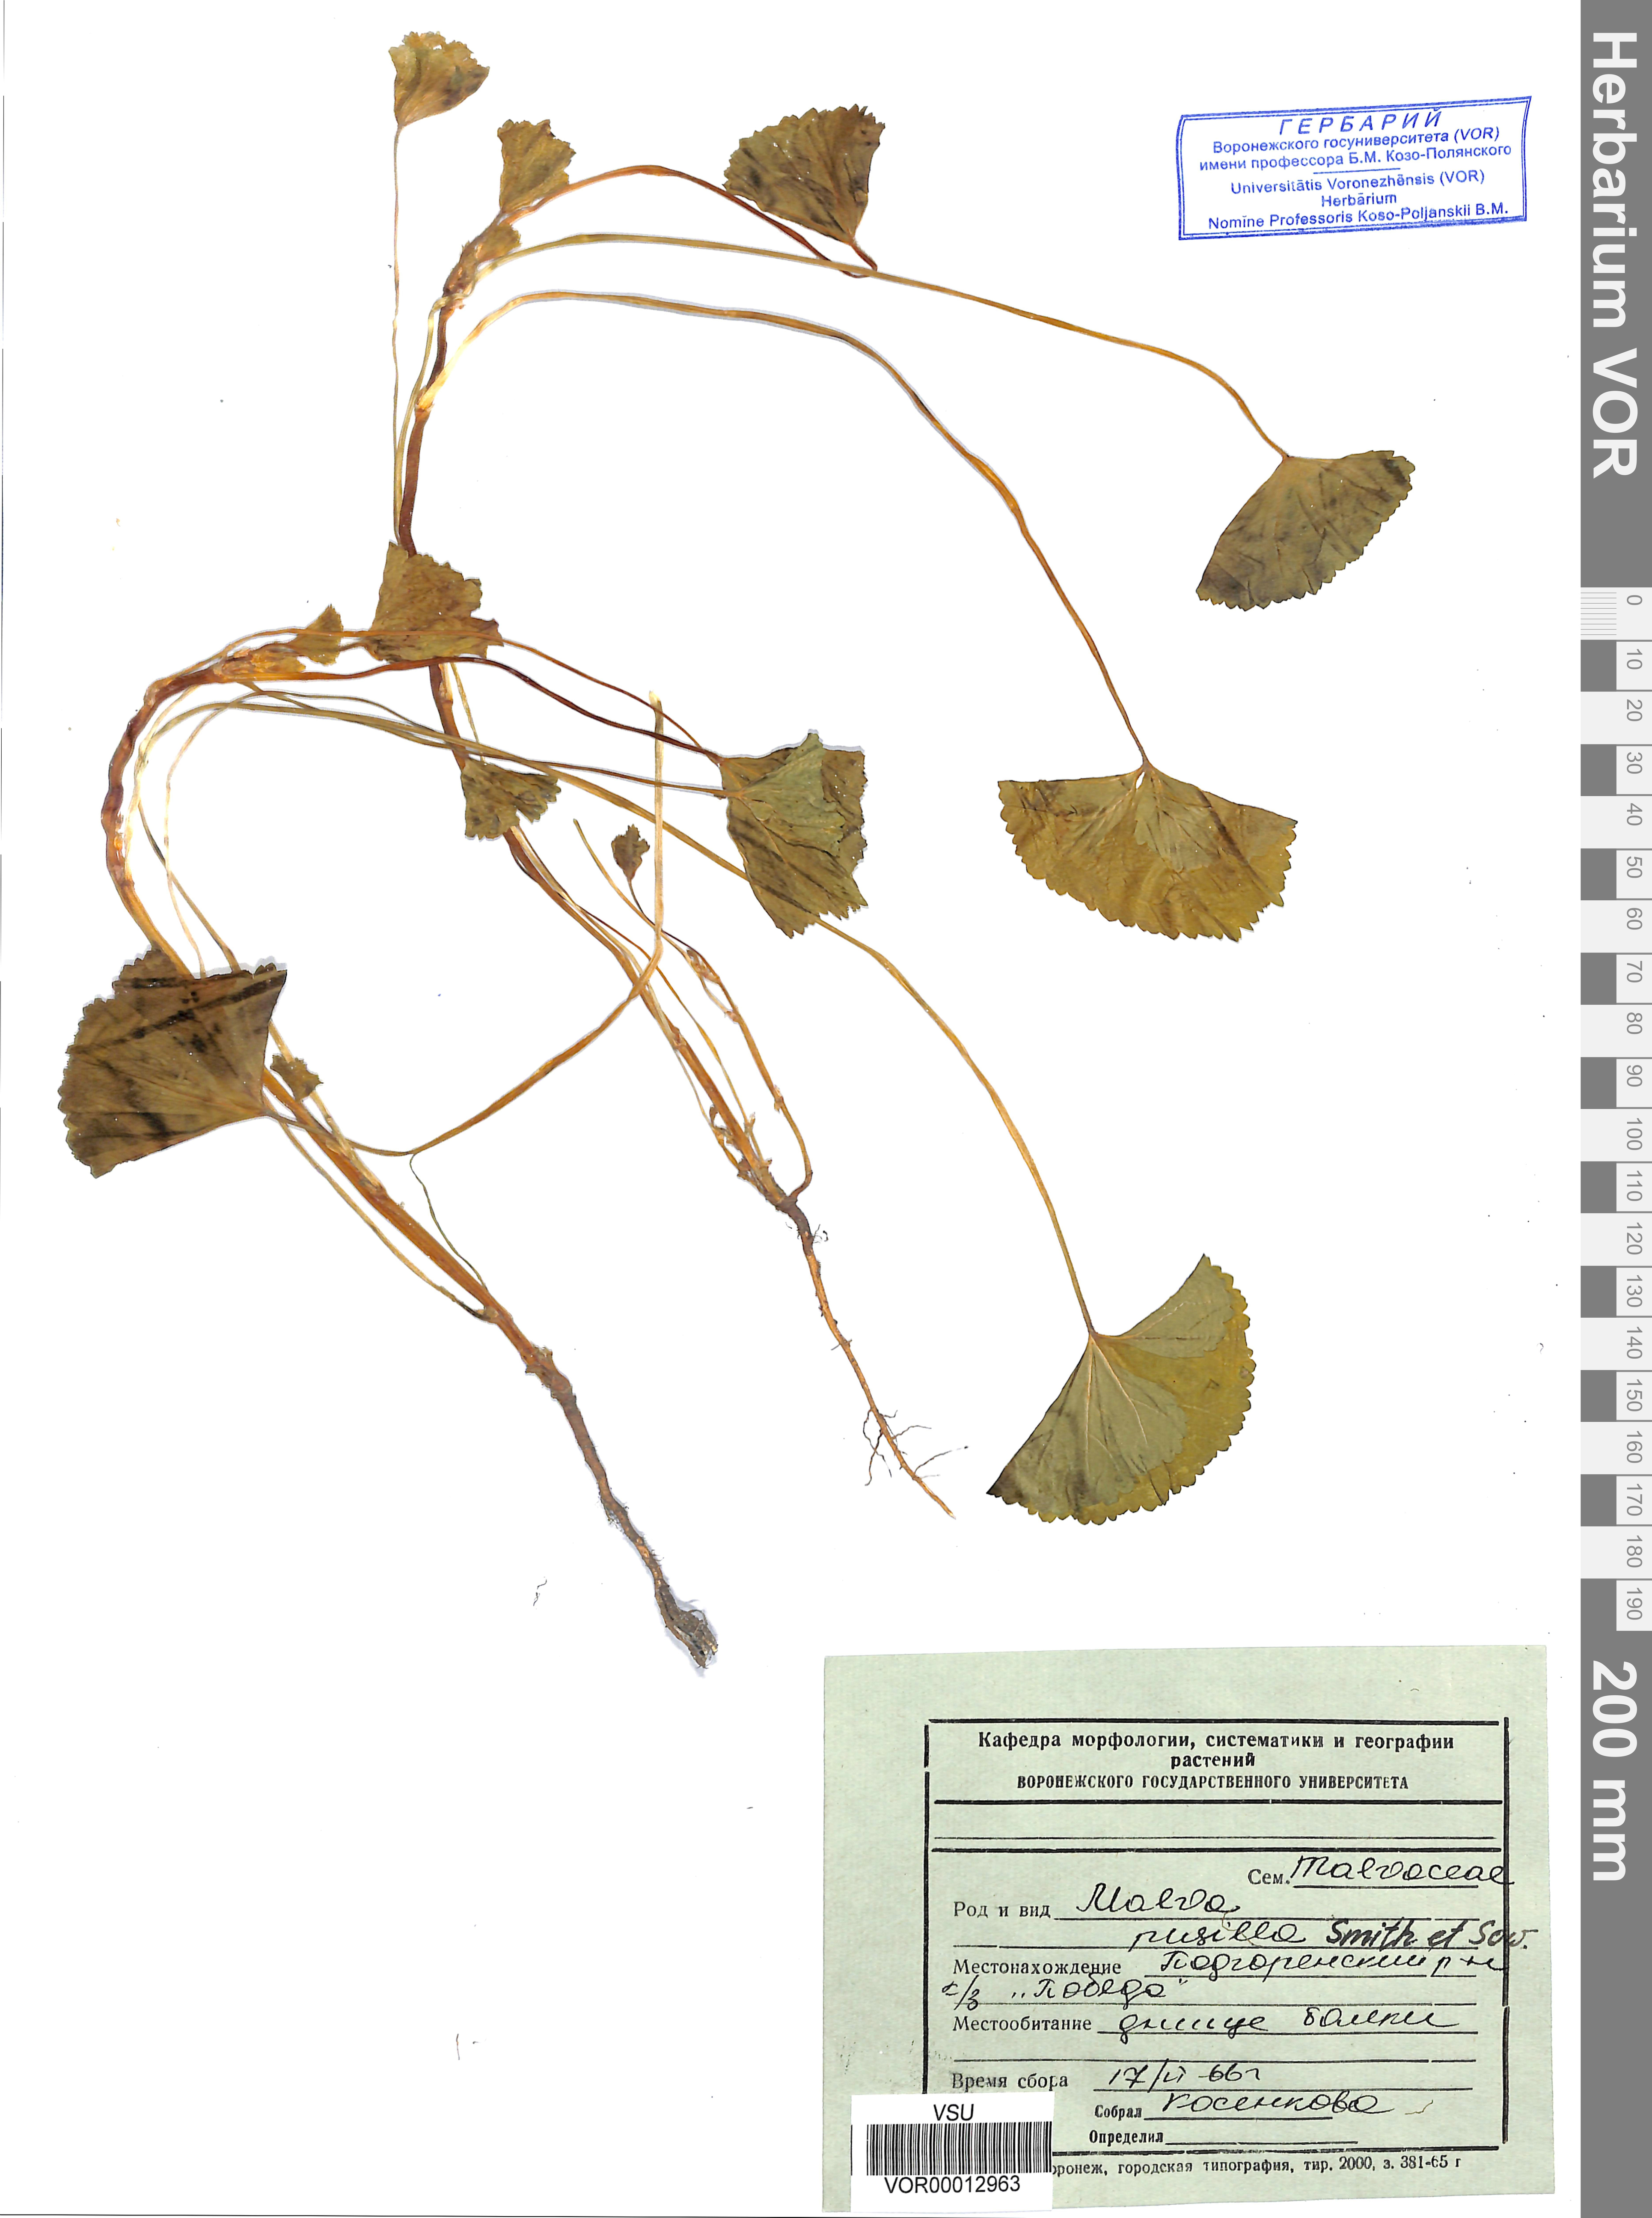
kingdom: Plantae
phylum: Tracheophyta
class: Magnoliopsida
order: Malvales
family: Malvaceae
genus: Malva
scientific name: Malva pusilla
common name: Small mallow
